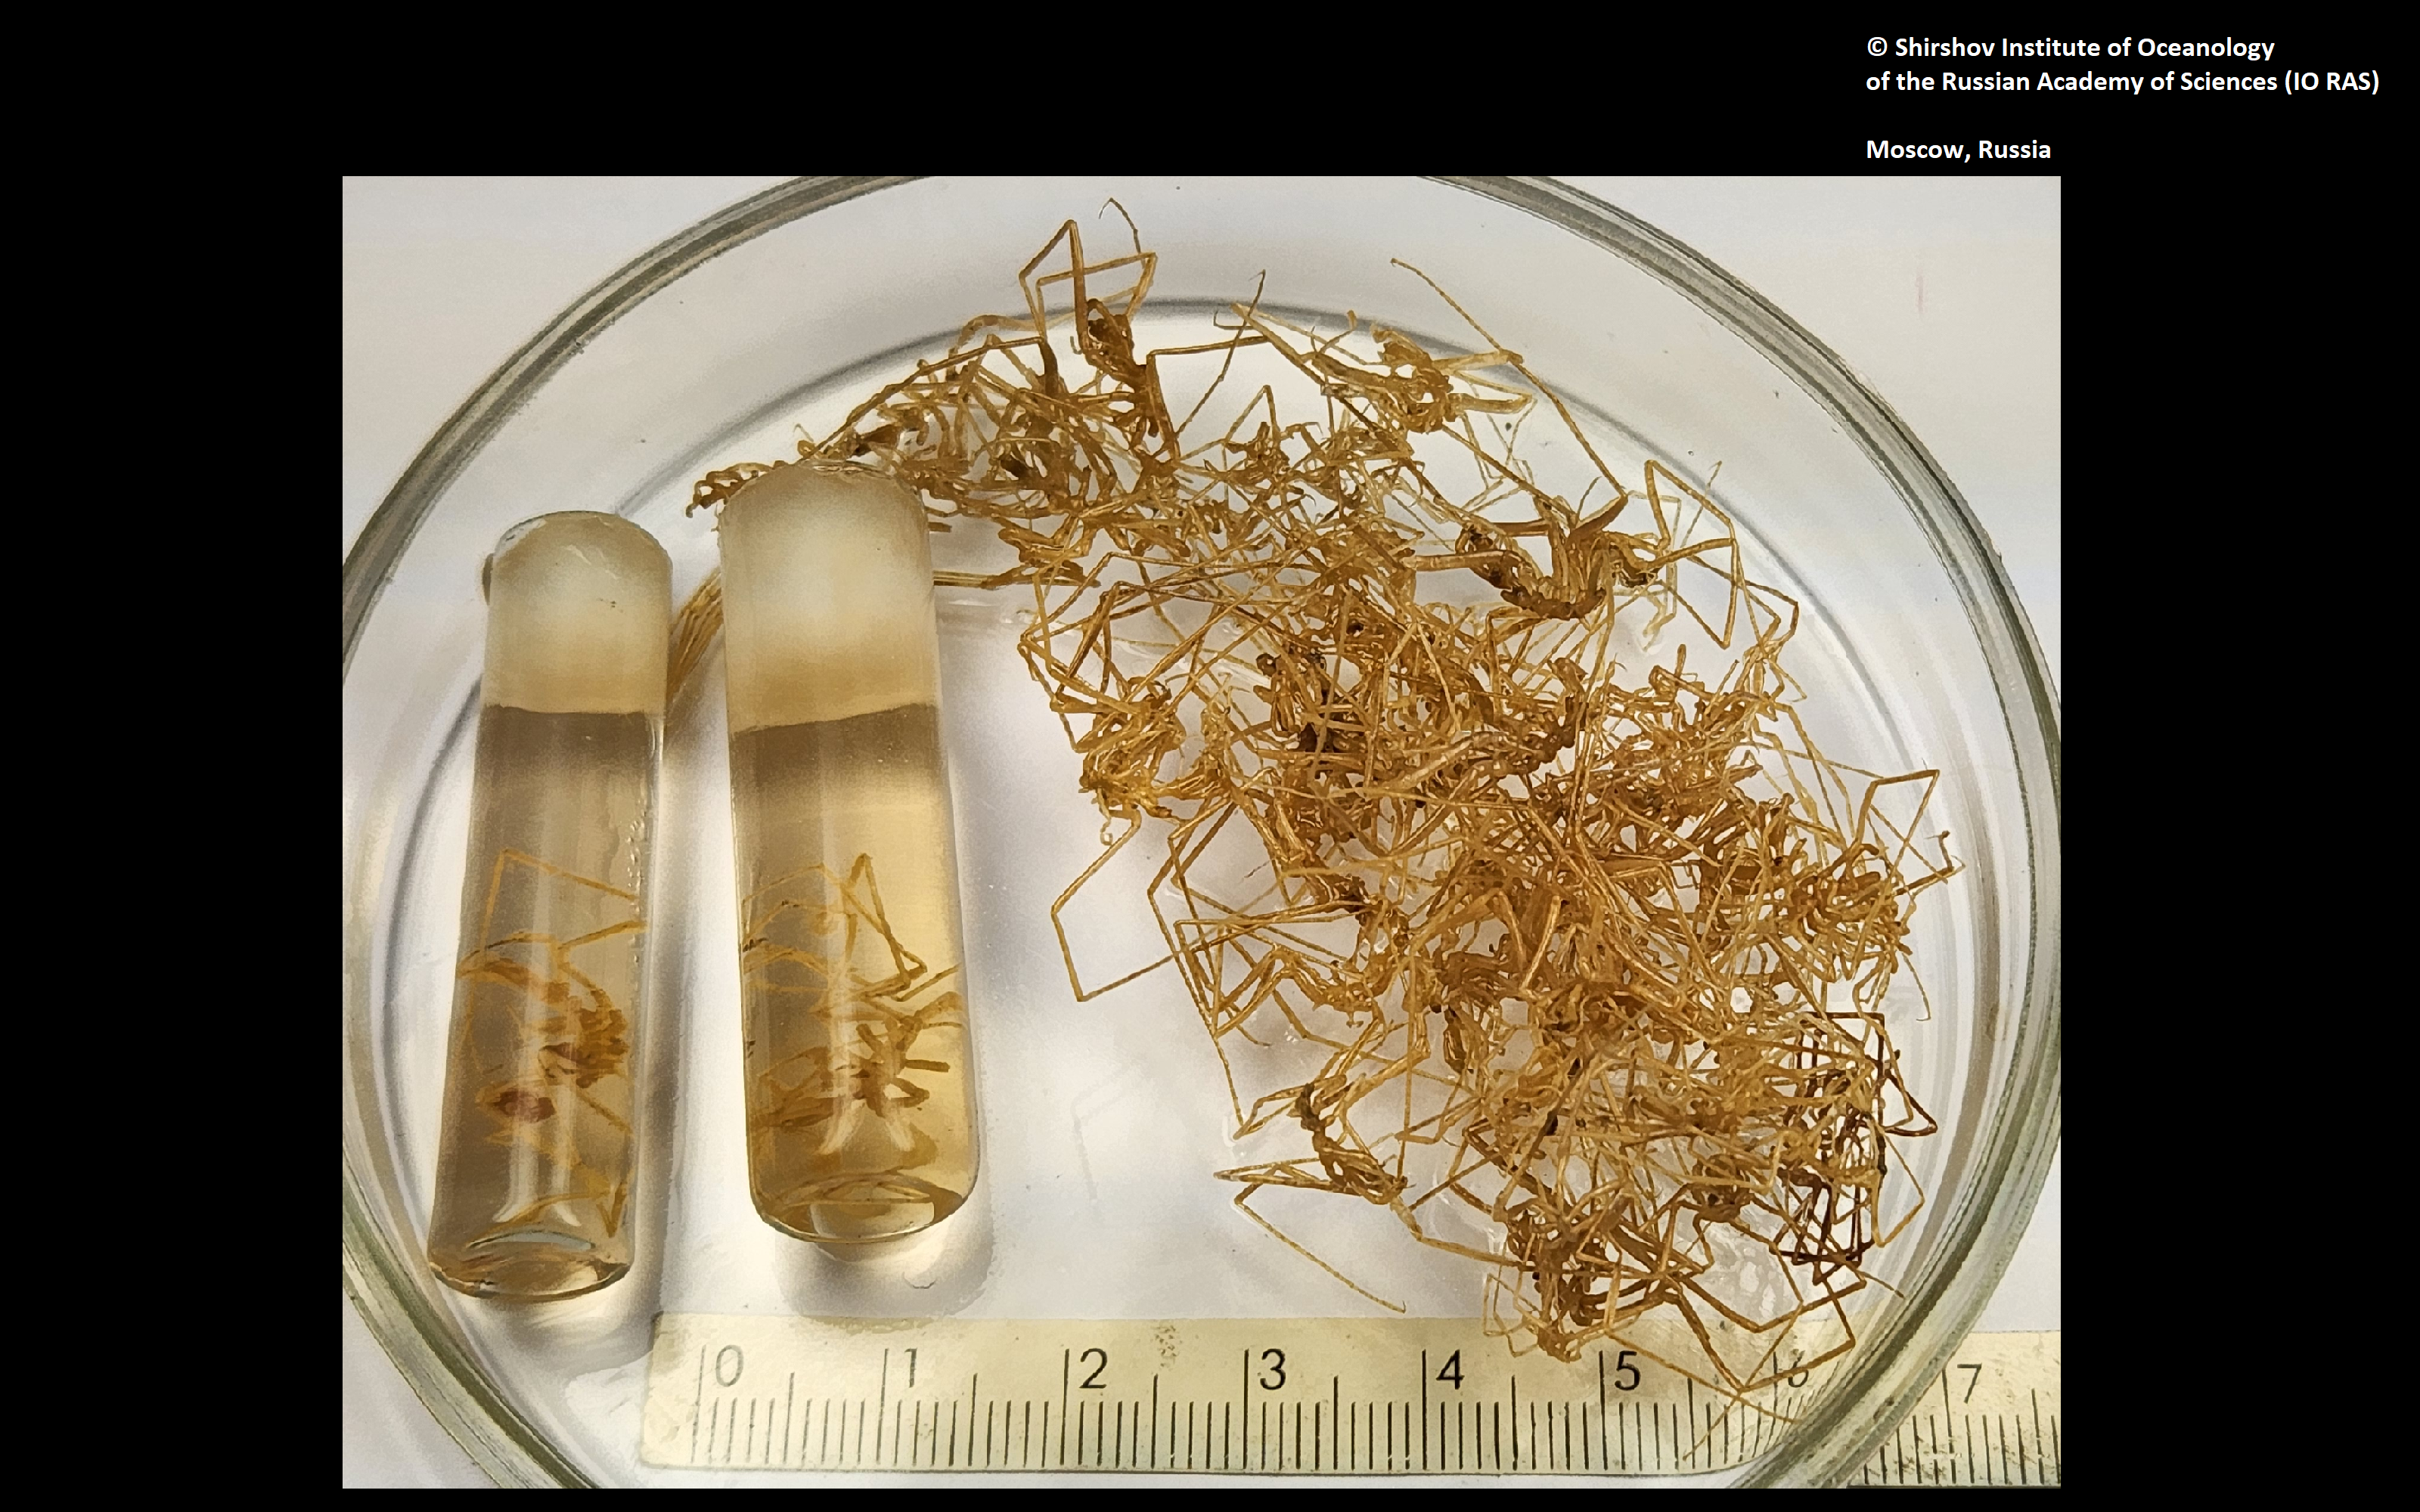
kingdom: Animalia
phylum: Arthropoda
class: Pycnogonida
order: Pantopoda
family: Nymphonidae
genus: Nymphon
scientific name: Nymphon hodgsoni
